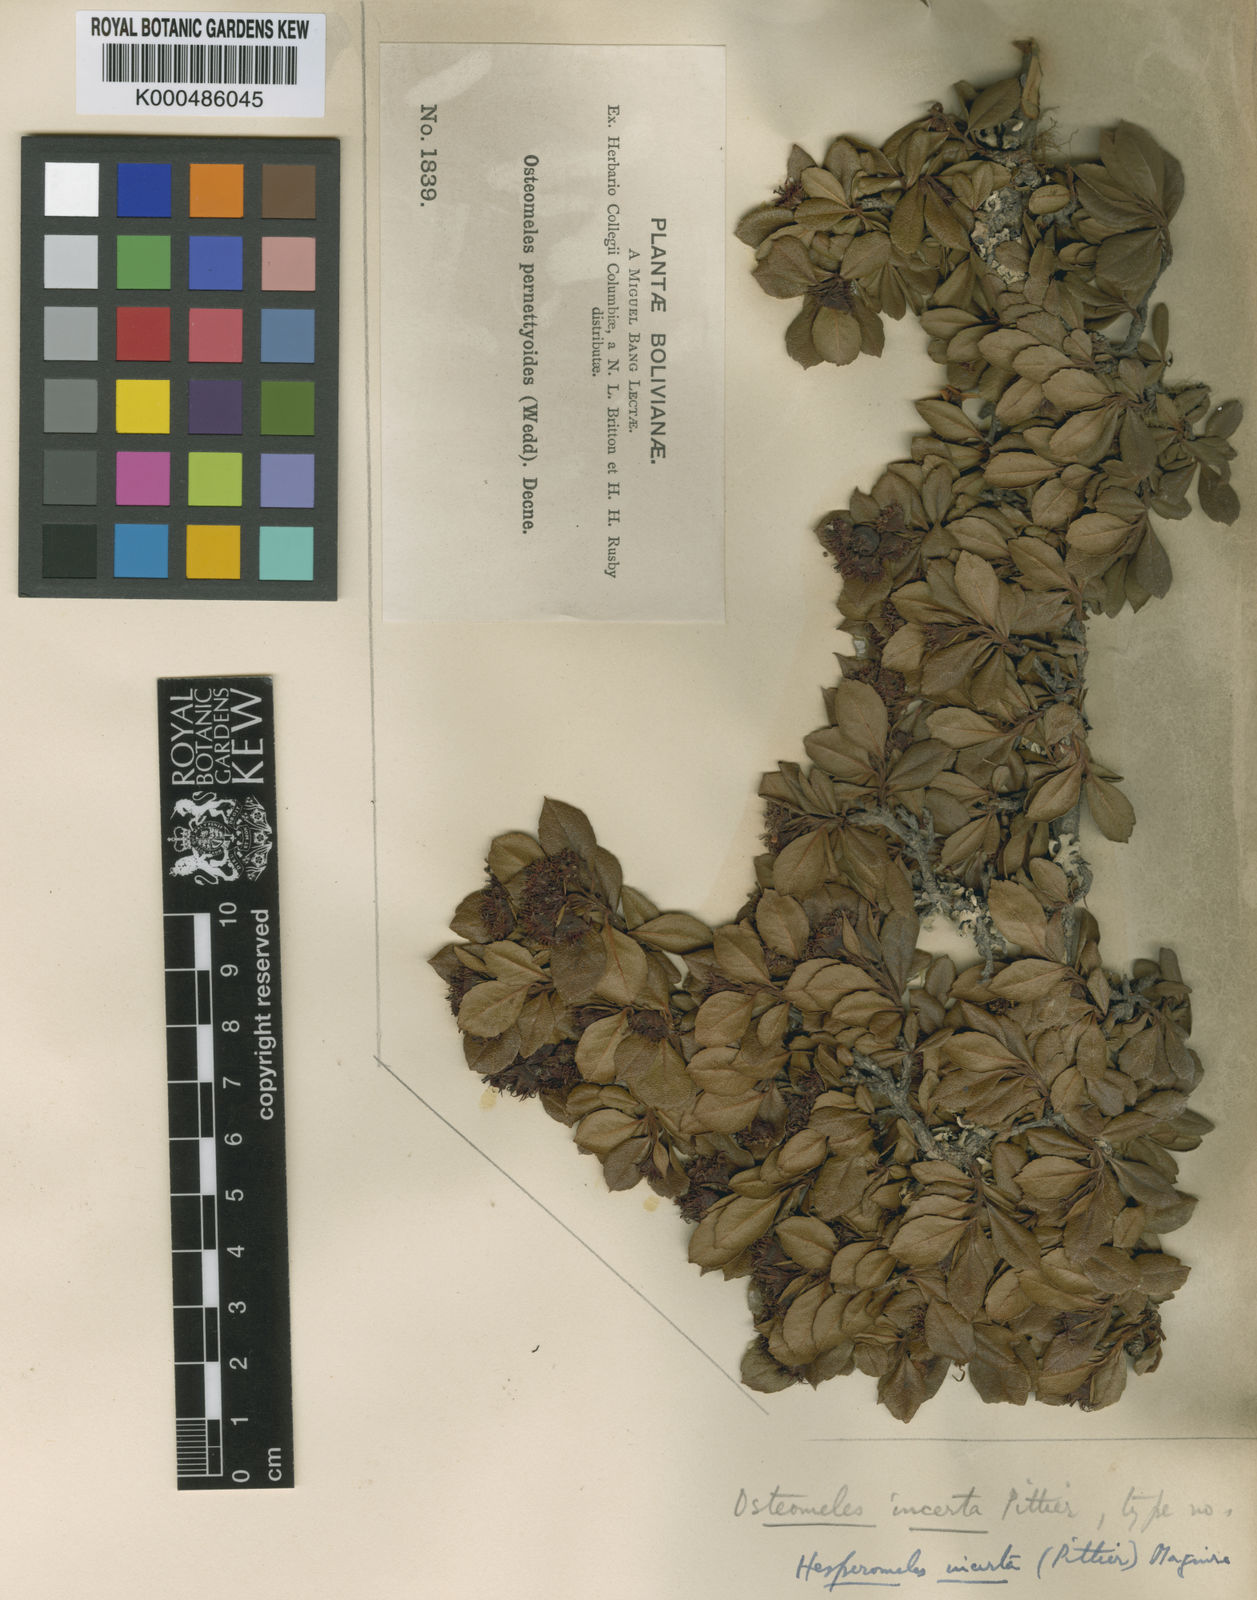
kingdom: Plantae
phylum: Tracheophyta
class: Magnoliopsida
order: Rosales
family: Rosaceae
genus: Hesperomeles
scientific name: Hesperomeles incerta
